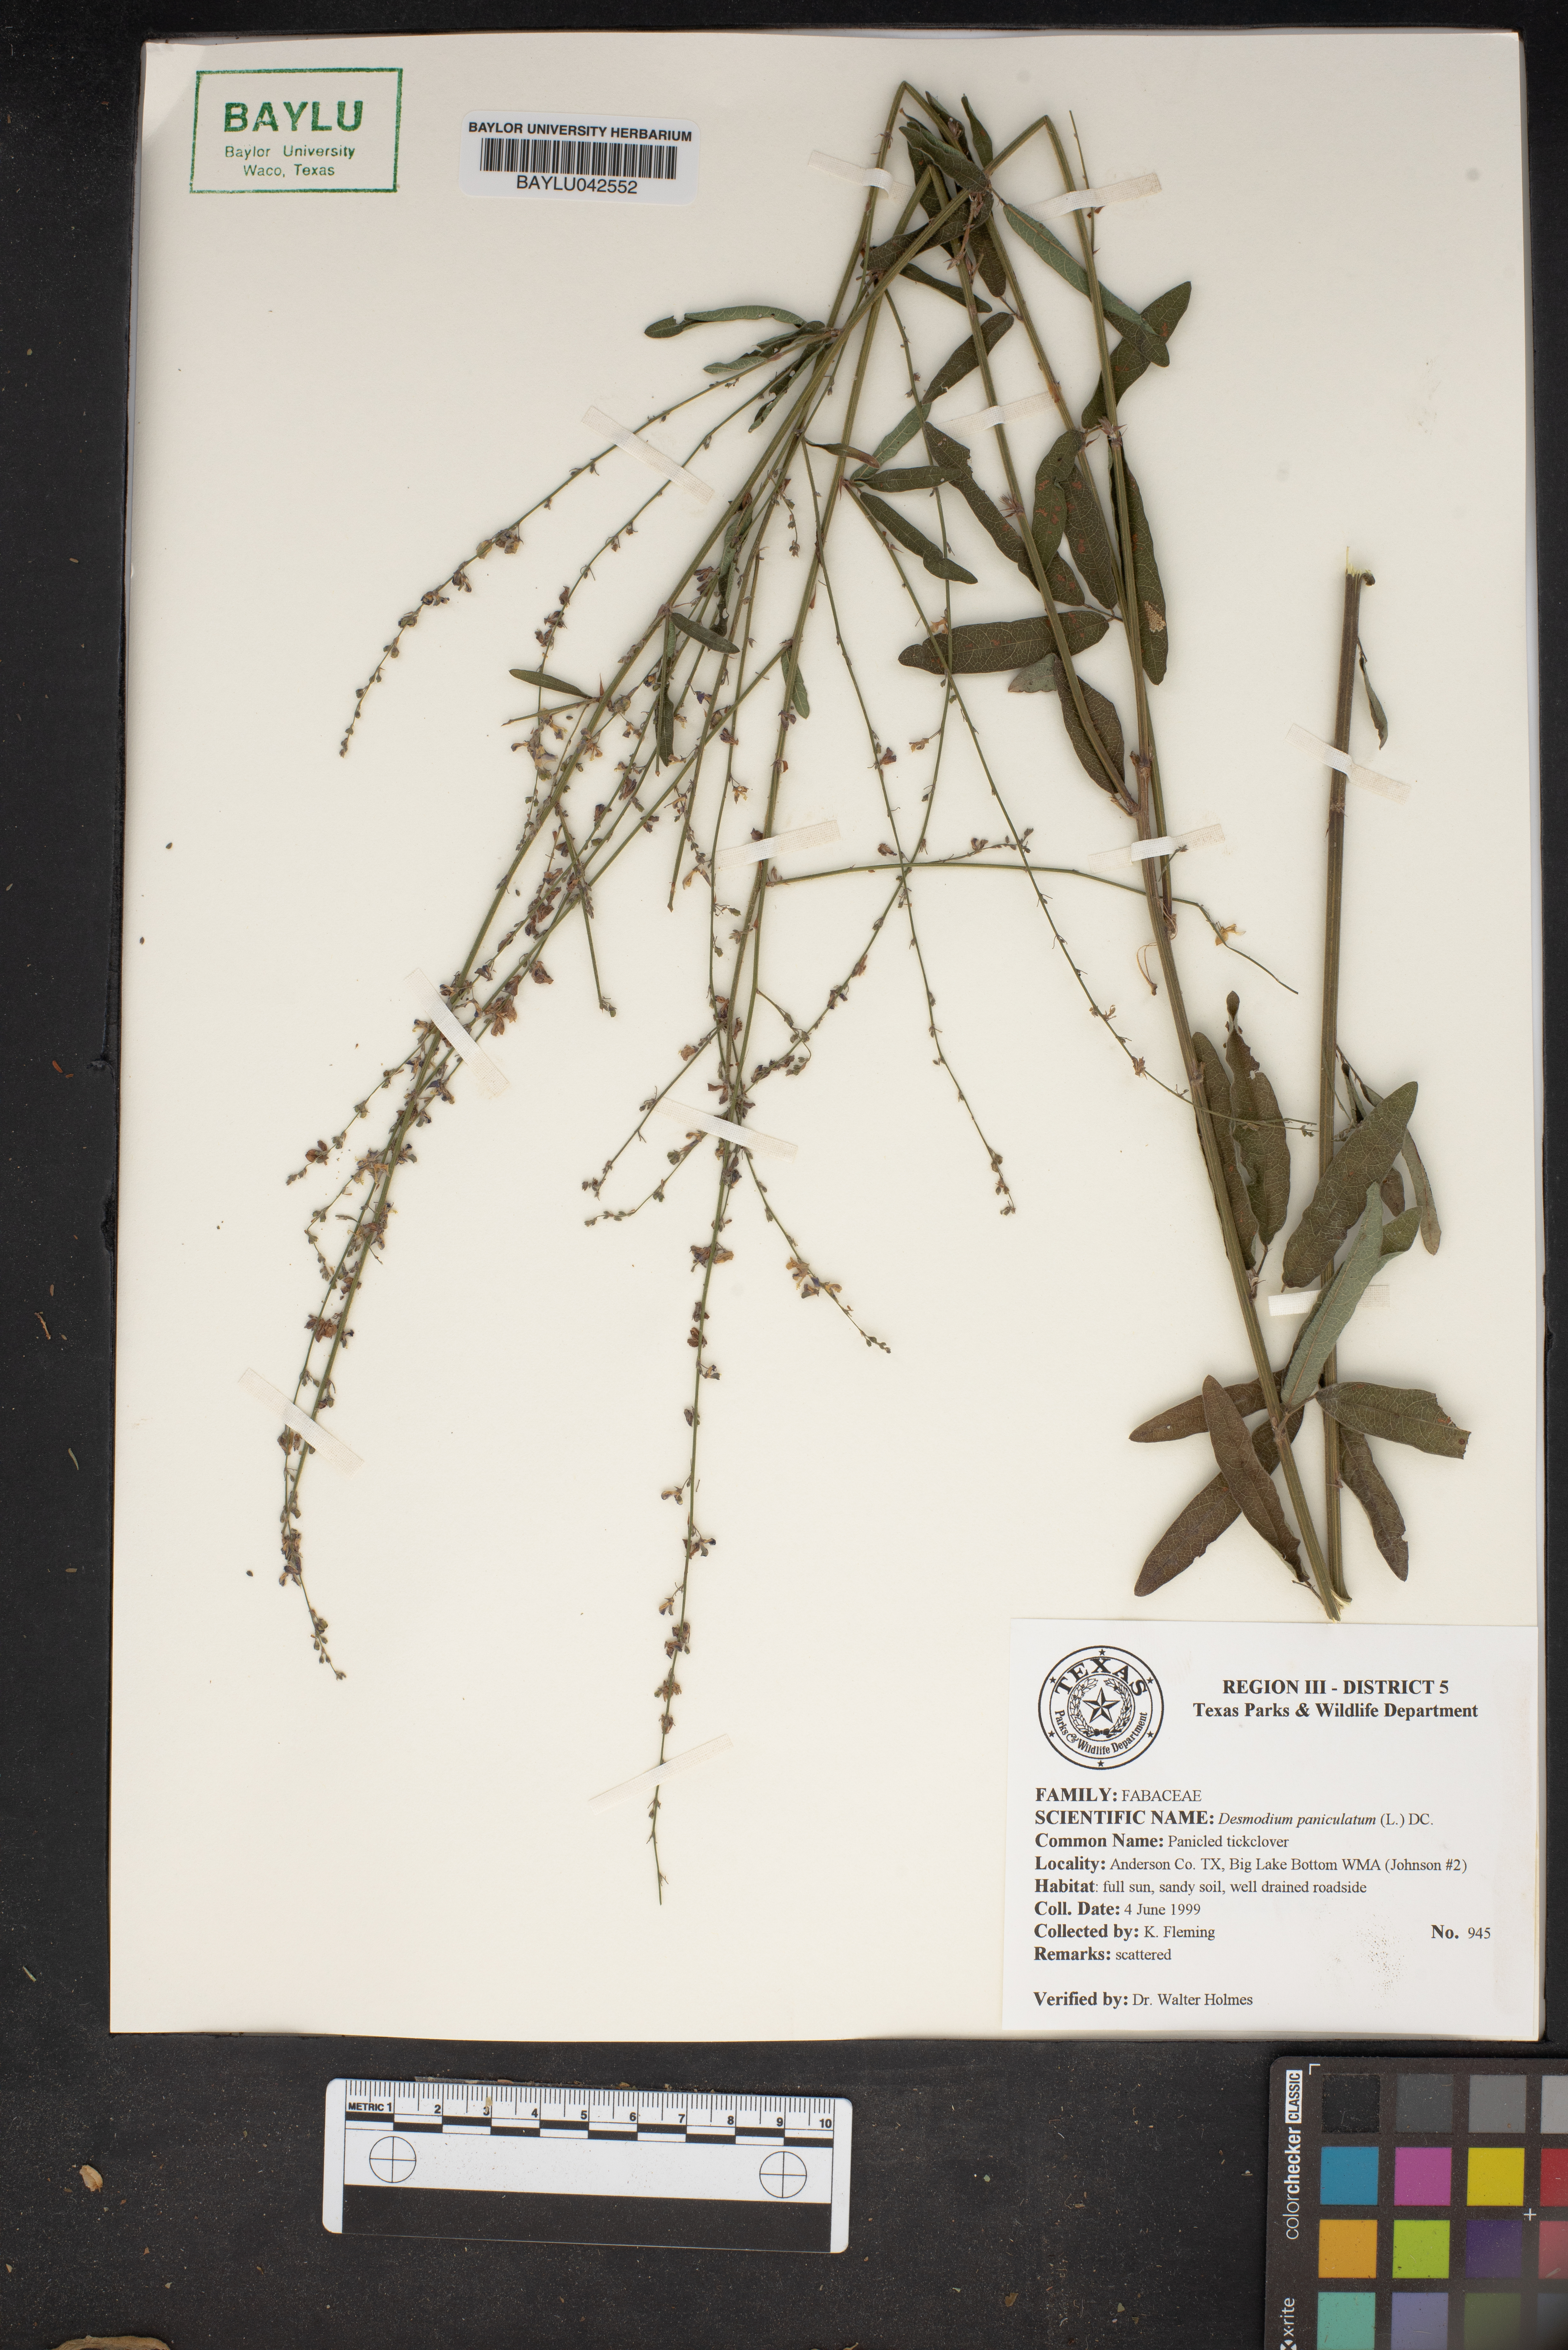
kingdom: Plantae
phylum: Tracheophyta
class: Magnoliopsida
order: Fabales
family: Fabaceae
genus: Desmodium
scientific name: Desmodium paniculatum
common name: Panicled tick-clover
